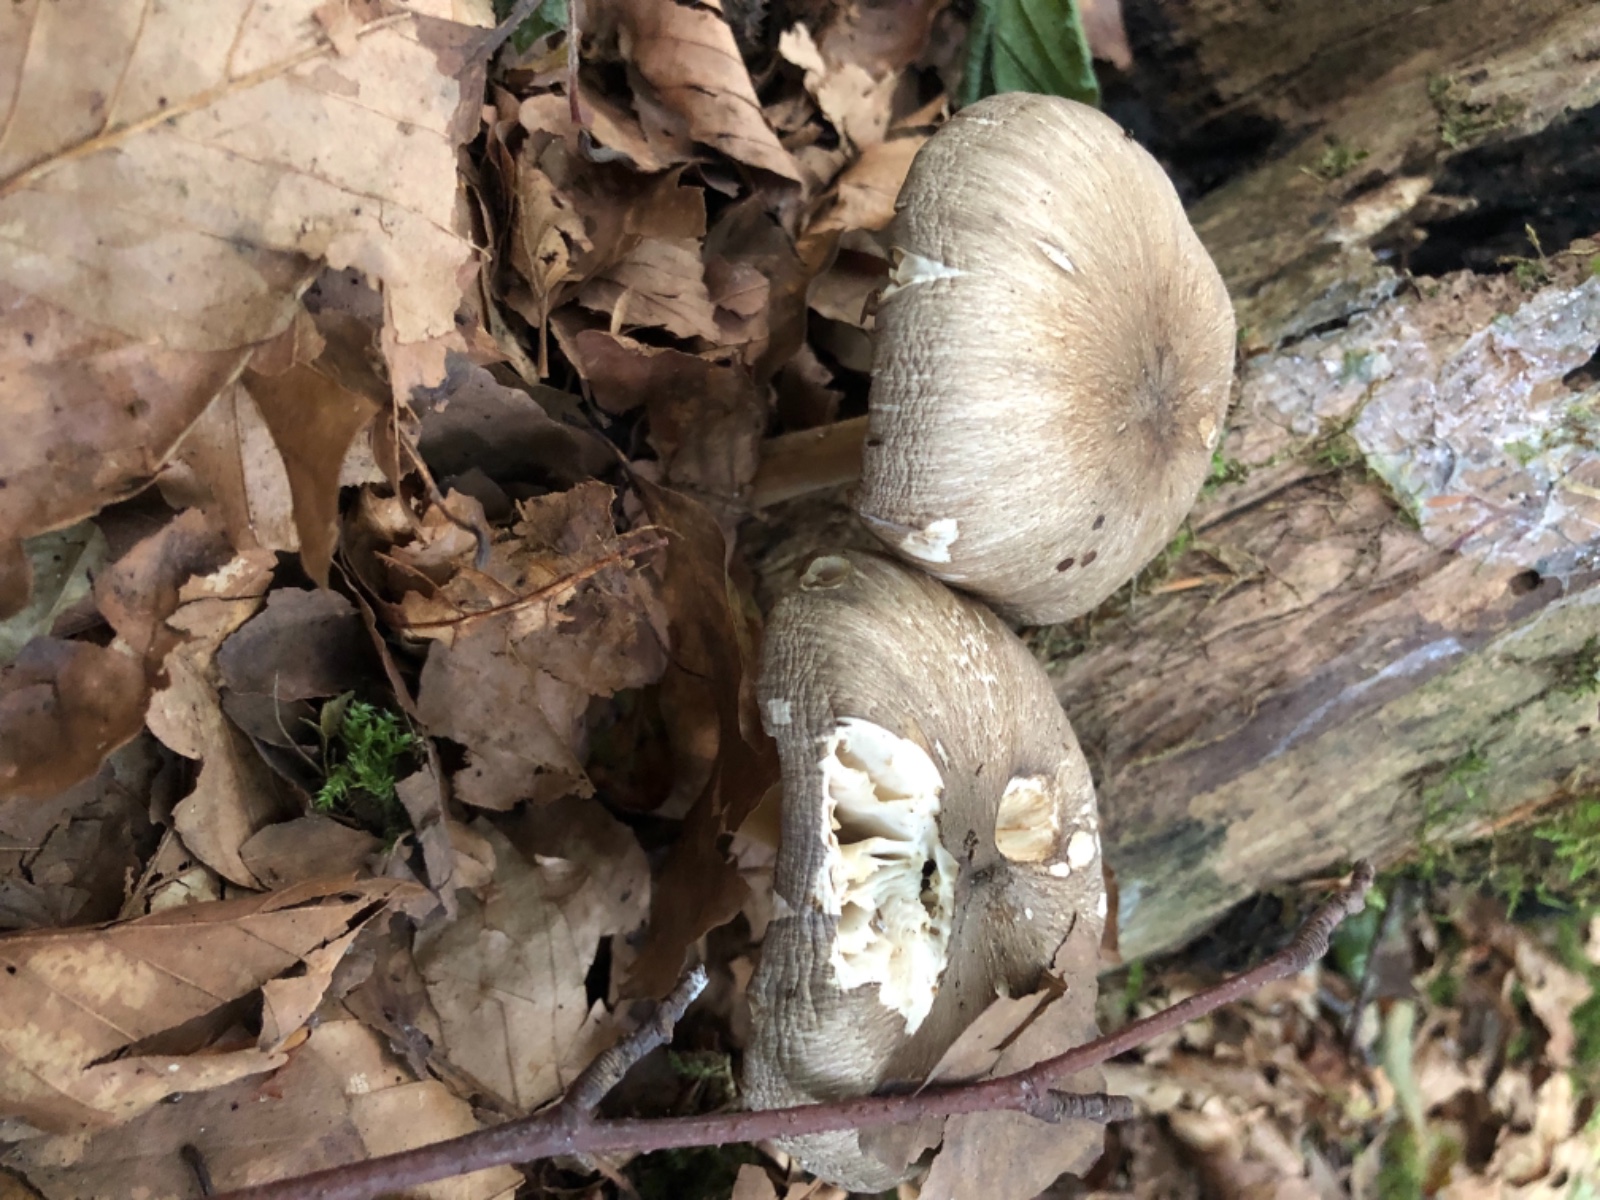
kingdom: Fungi
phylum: Basidiomycota
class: Agaricomycetes
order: Agaricales
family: Tricholomataceae
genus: Megacollybia
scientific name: Megacollybia platyphylla
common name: bredbladet væbnerhat
